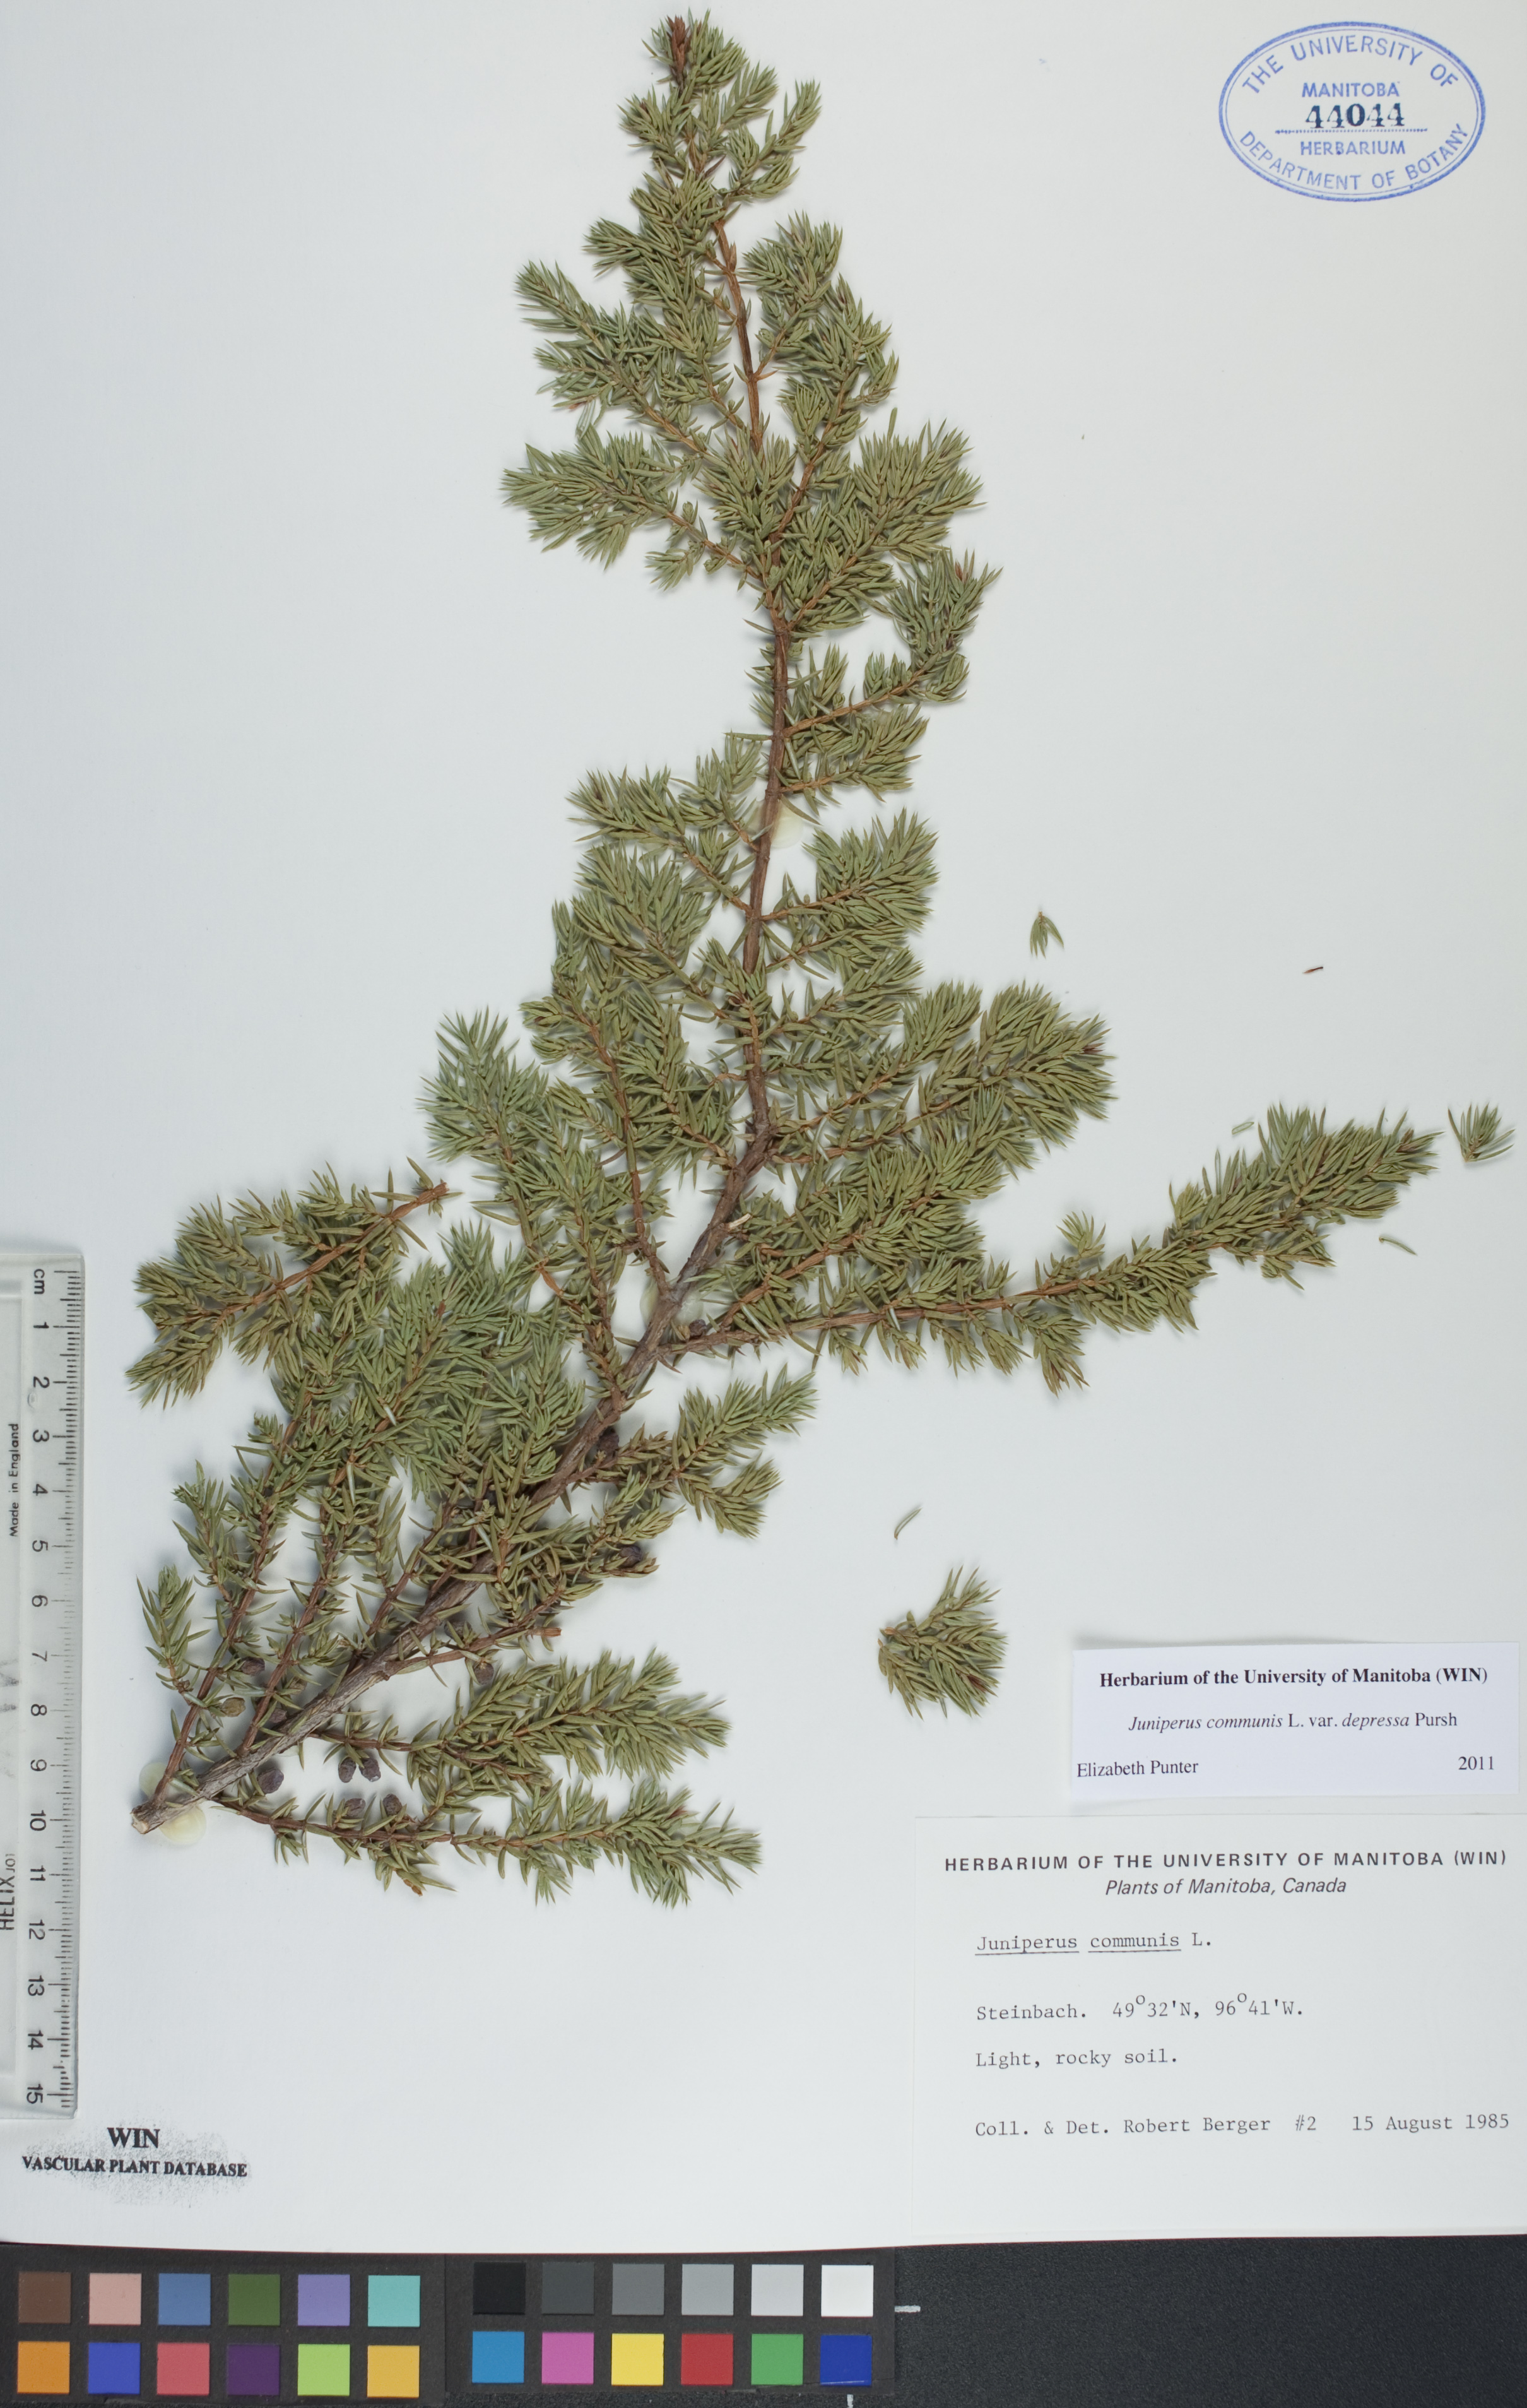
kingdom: Plantae
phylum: Tracheophyta
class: Pinopsida
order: Pinales
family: Cupressaceae
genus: Juniperus
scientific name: Juniperus communis
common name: Common juniper
